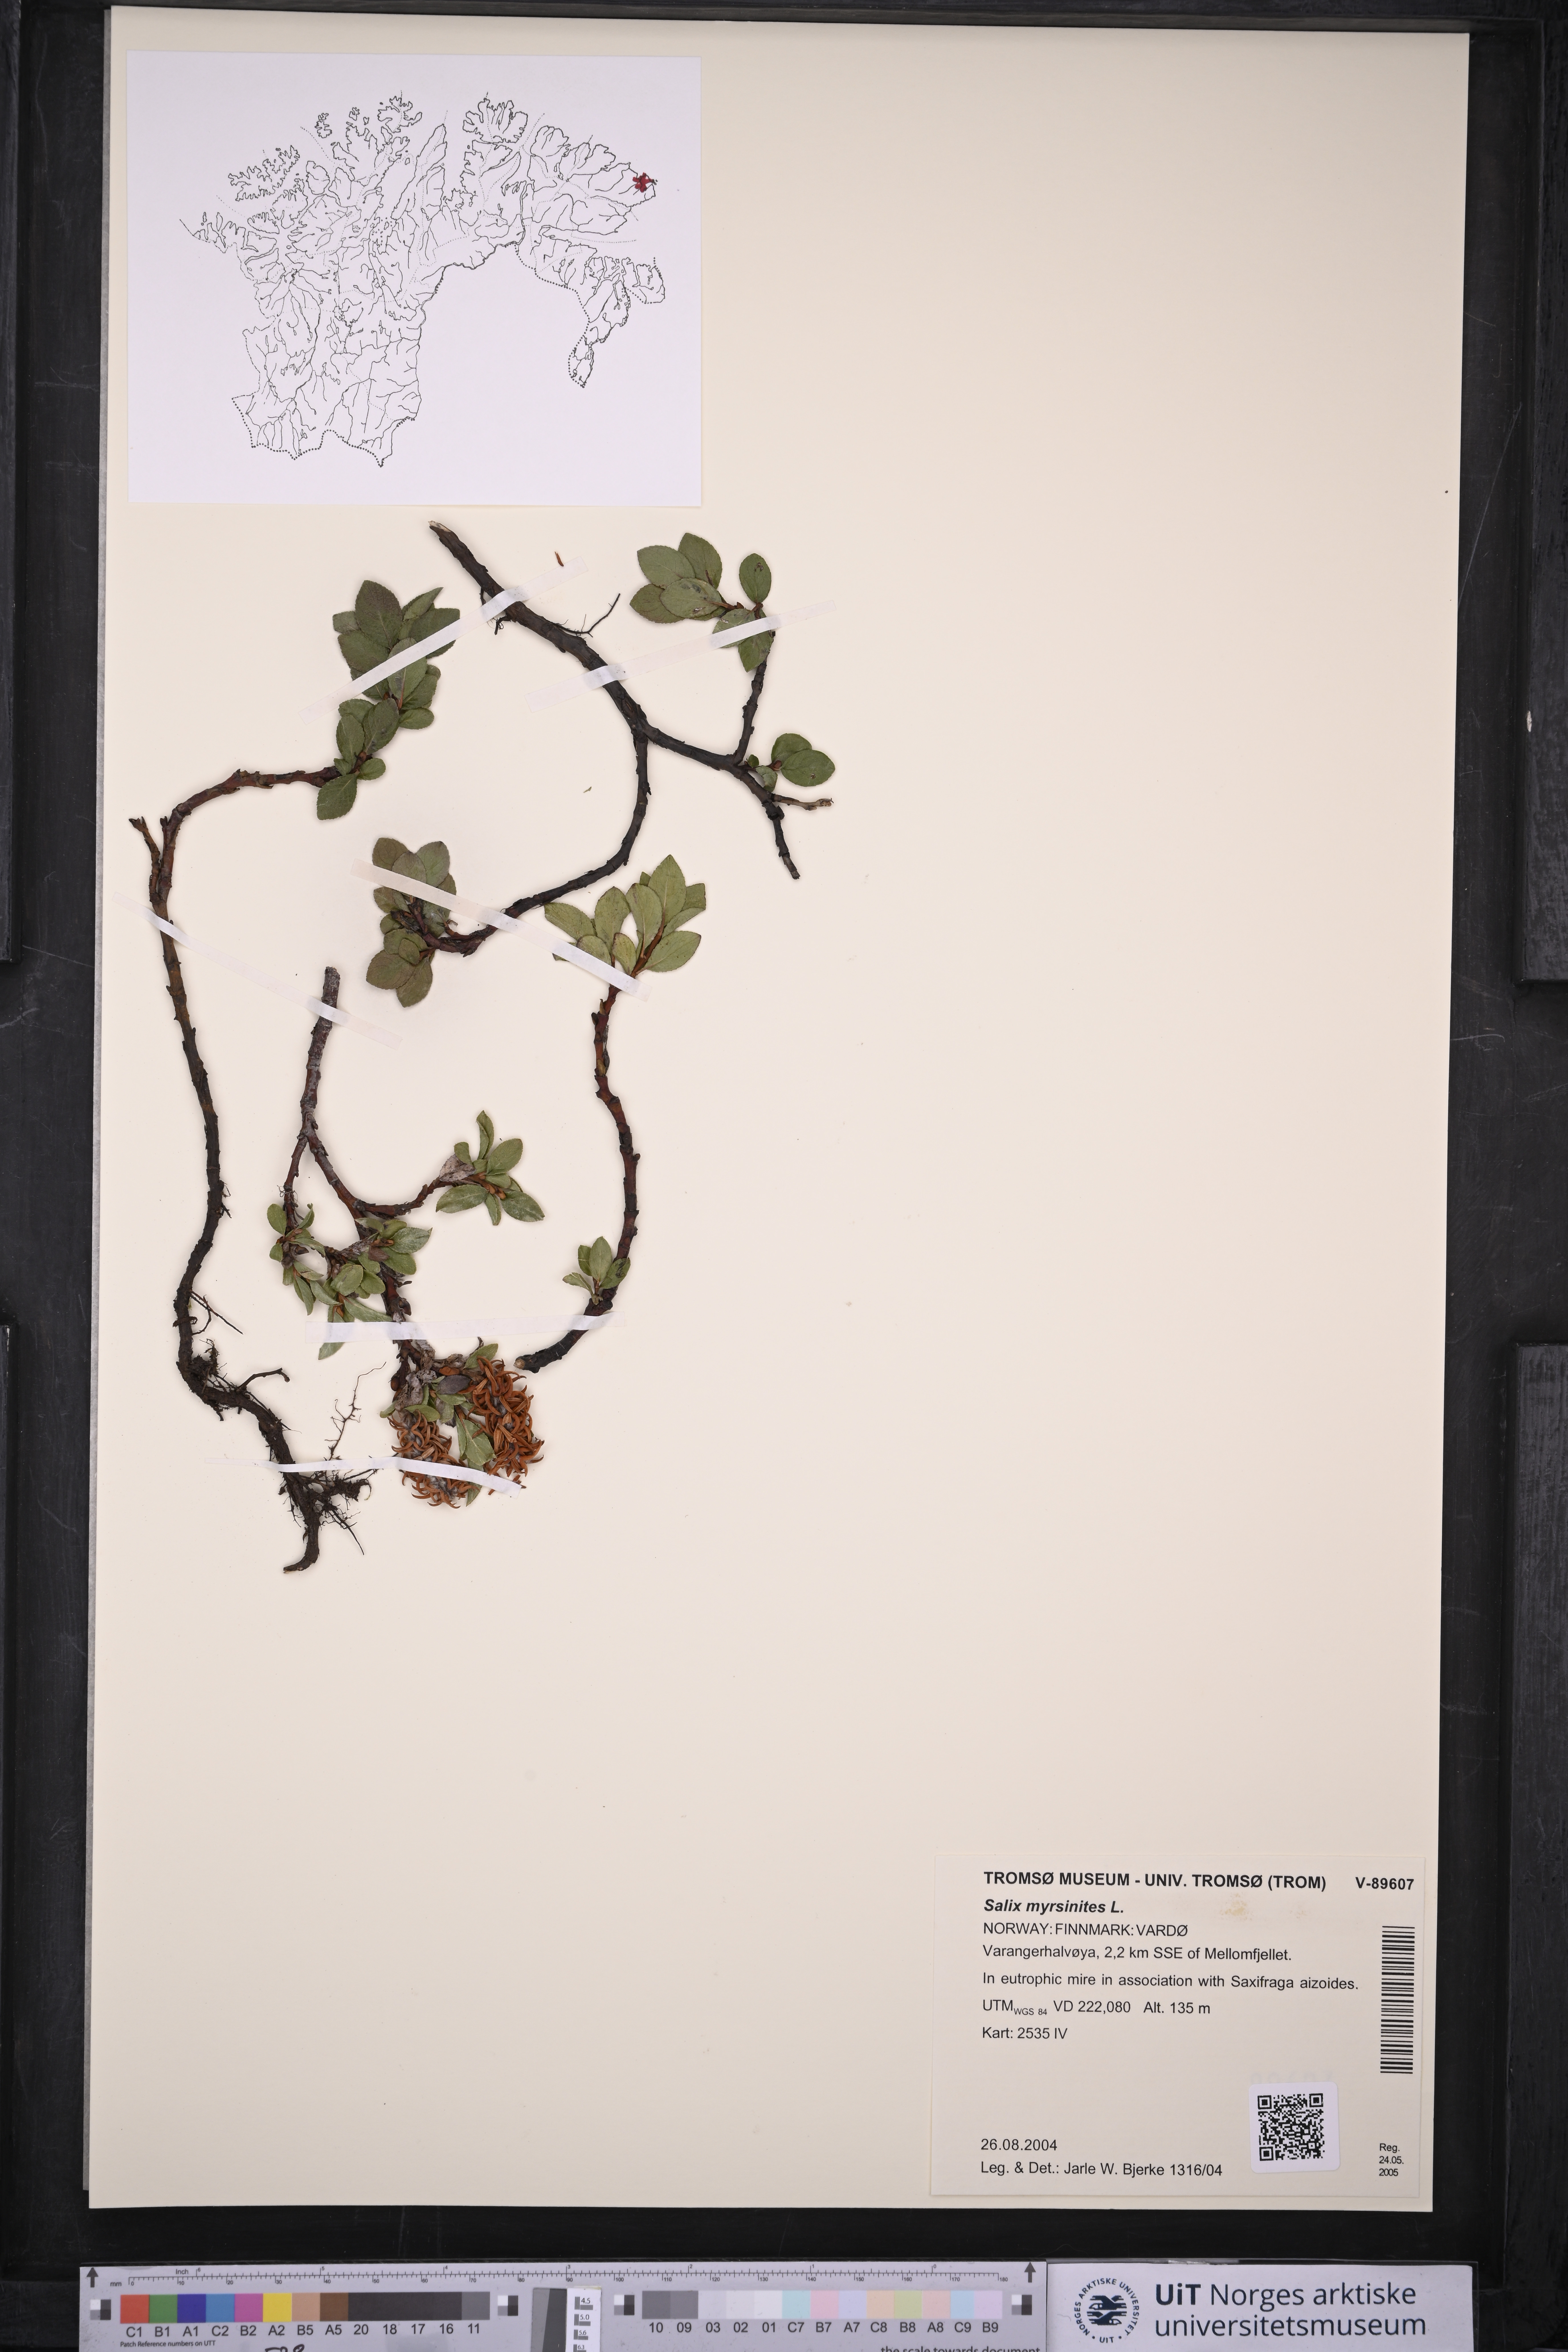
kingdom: Plantae
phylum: Tracheophyta
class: Magnoliopsida
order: Malpighiales
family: Salicaceae
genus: Salix
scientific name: Salix myrsinites
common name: Myrtle willow
